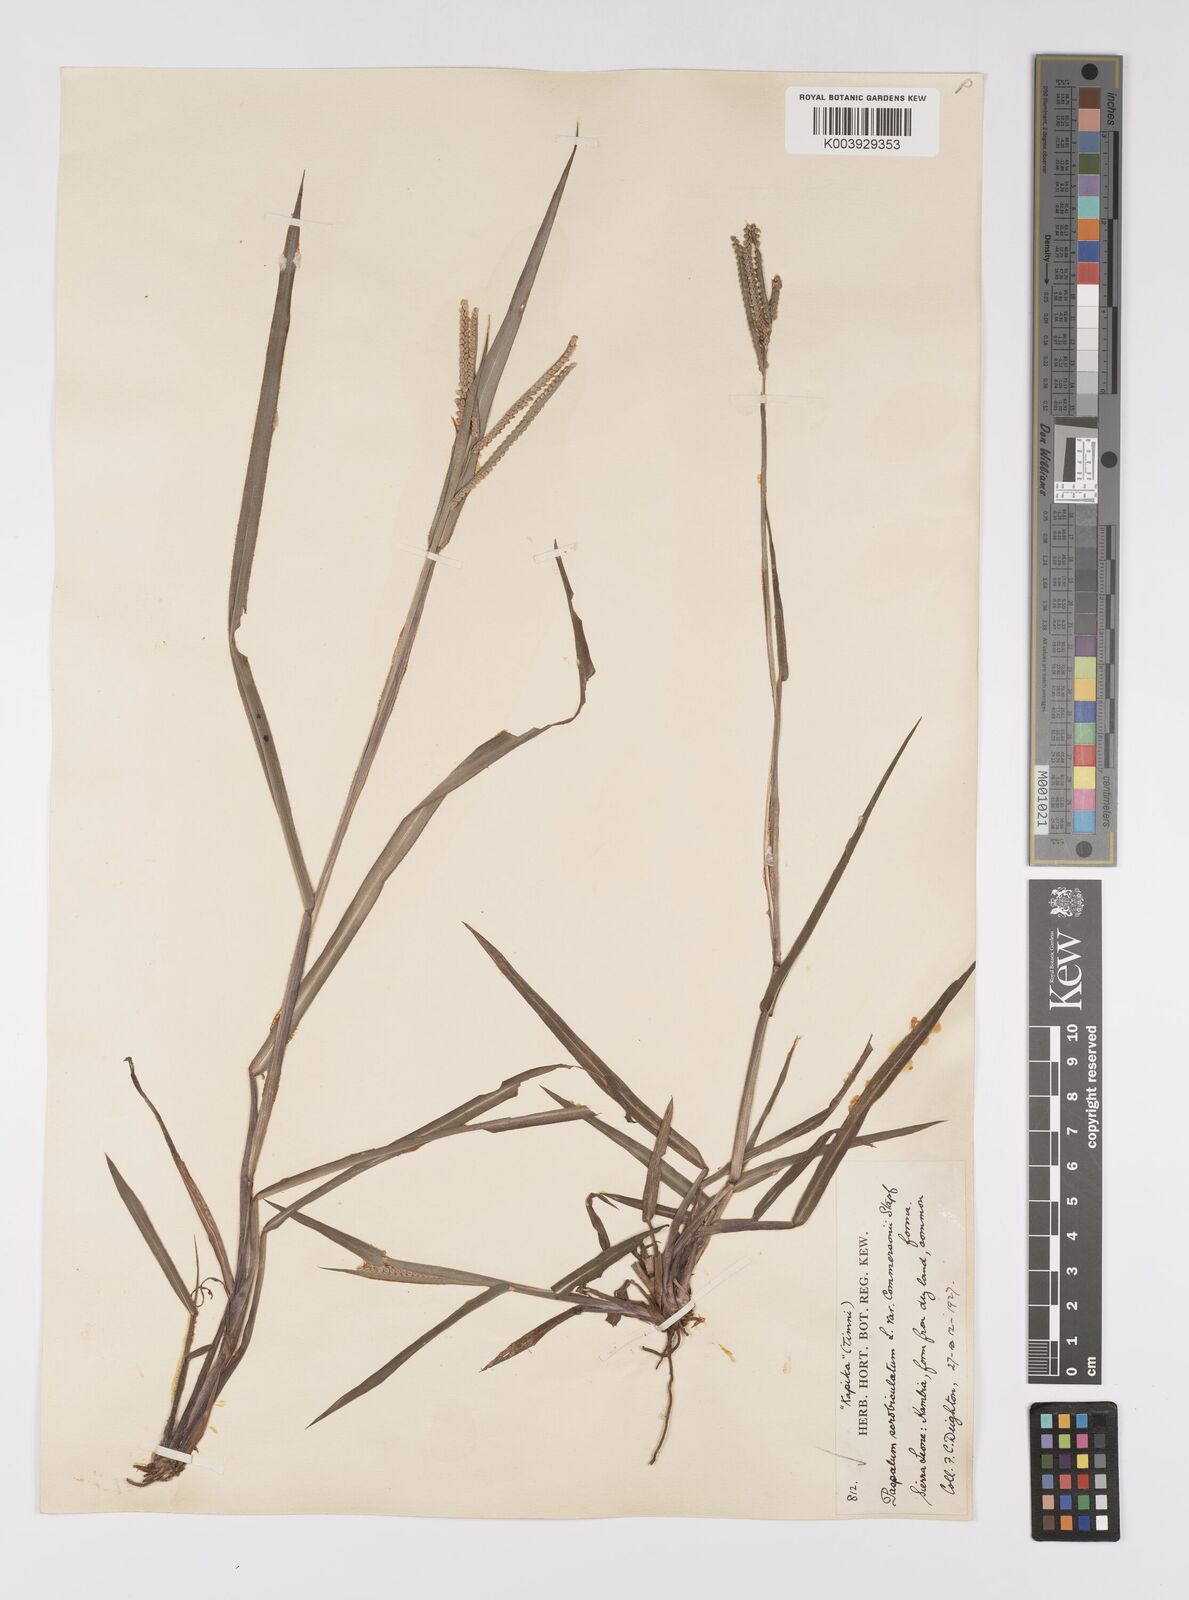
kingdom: Plantae
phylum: Tracheophyta
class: Liliopsida
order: Poales
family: Poaceae
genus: Paspalum
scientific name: Paspalum scrobiculatum
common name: Kodo millet
